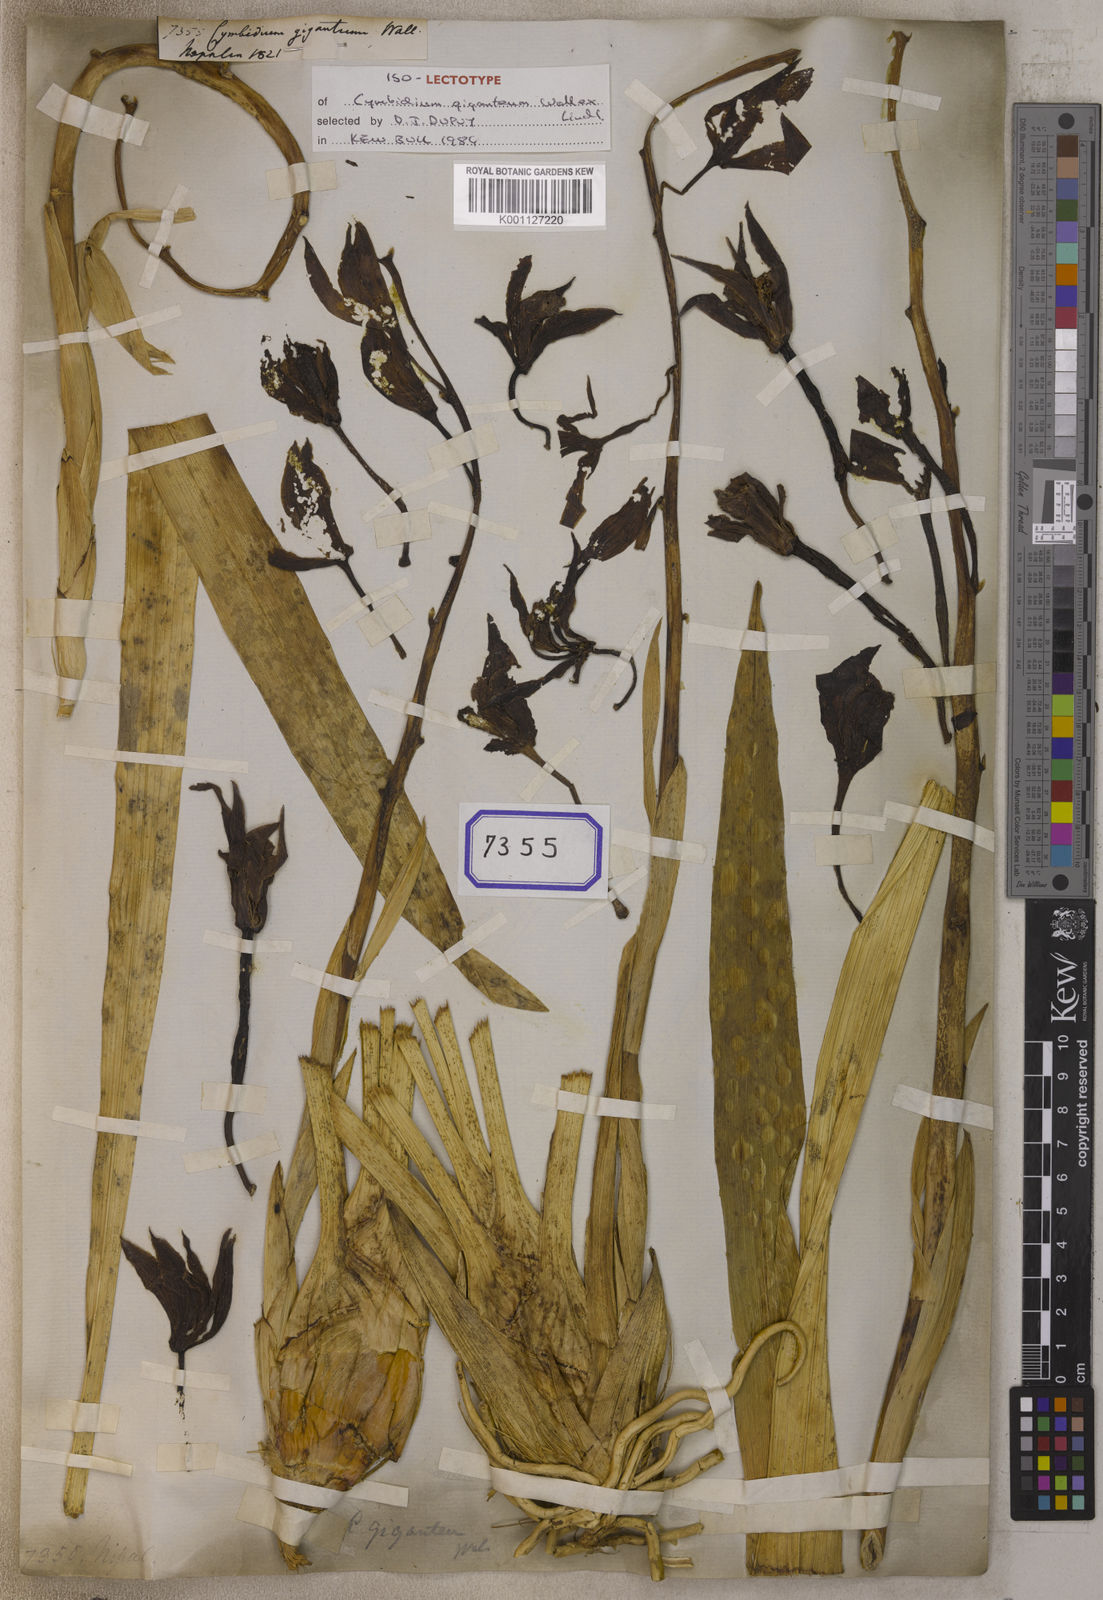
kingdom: Plantae
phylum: Tracheophyta
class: Liliopsida
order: Asparagales
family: Orchidaceae
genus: Cymbidium
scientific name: Cymbidium
